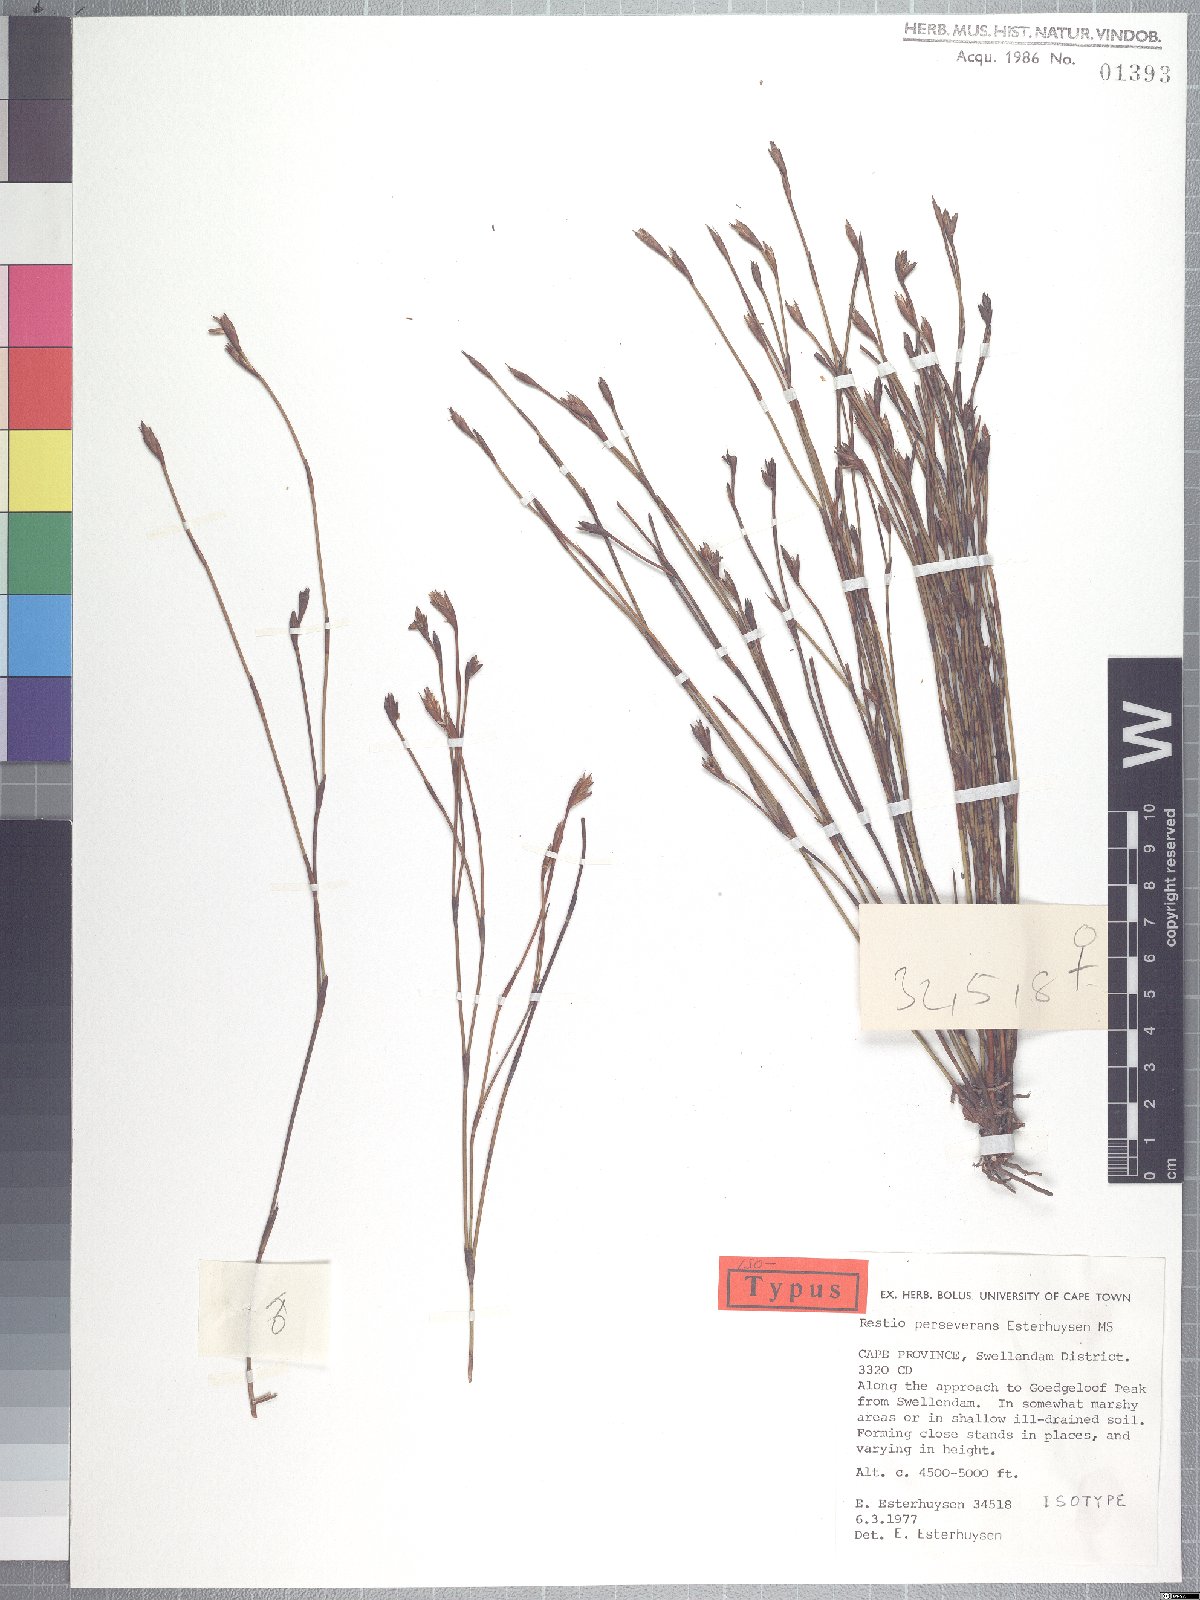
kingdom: Plantae
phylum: Tracheophyta
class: Liliopsida
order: Poales
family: Restionaceae
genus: Restio
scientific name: Restio perseverans
